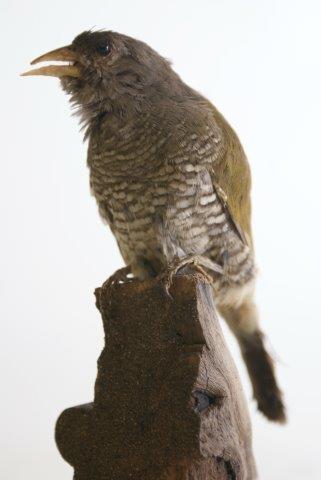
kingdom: Animalia
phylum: Chordata
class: Aves
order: Passeriformes
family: Estrildidae
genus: Pytilia
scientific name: Pytilia melba
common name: Green-winged pytilia
